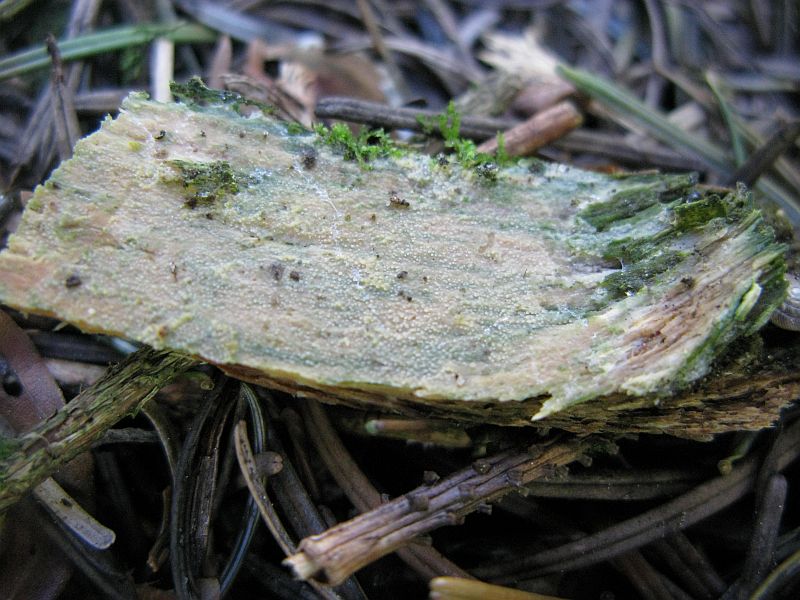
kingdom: Fungi
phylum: Basidiomycota
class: Agaricomycetes
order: Hymenochaetales
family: Rickenellaceae
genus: Resinicium
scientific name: Resinicium bicolor
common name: almindelig vokstand
